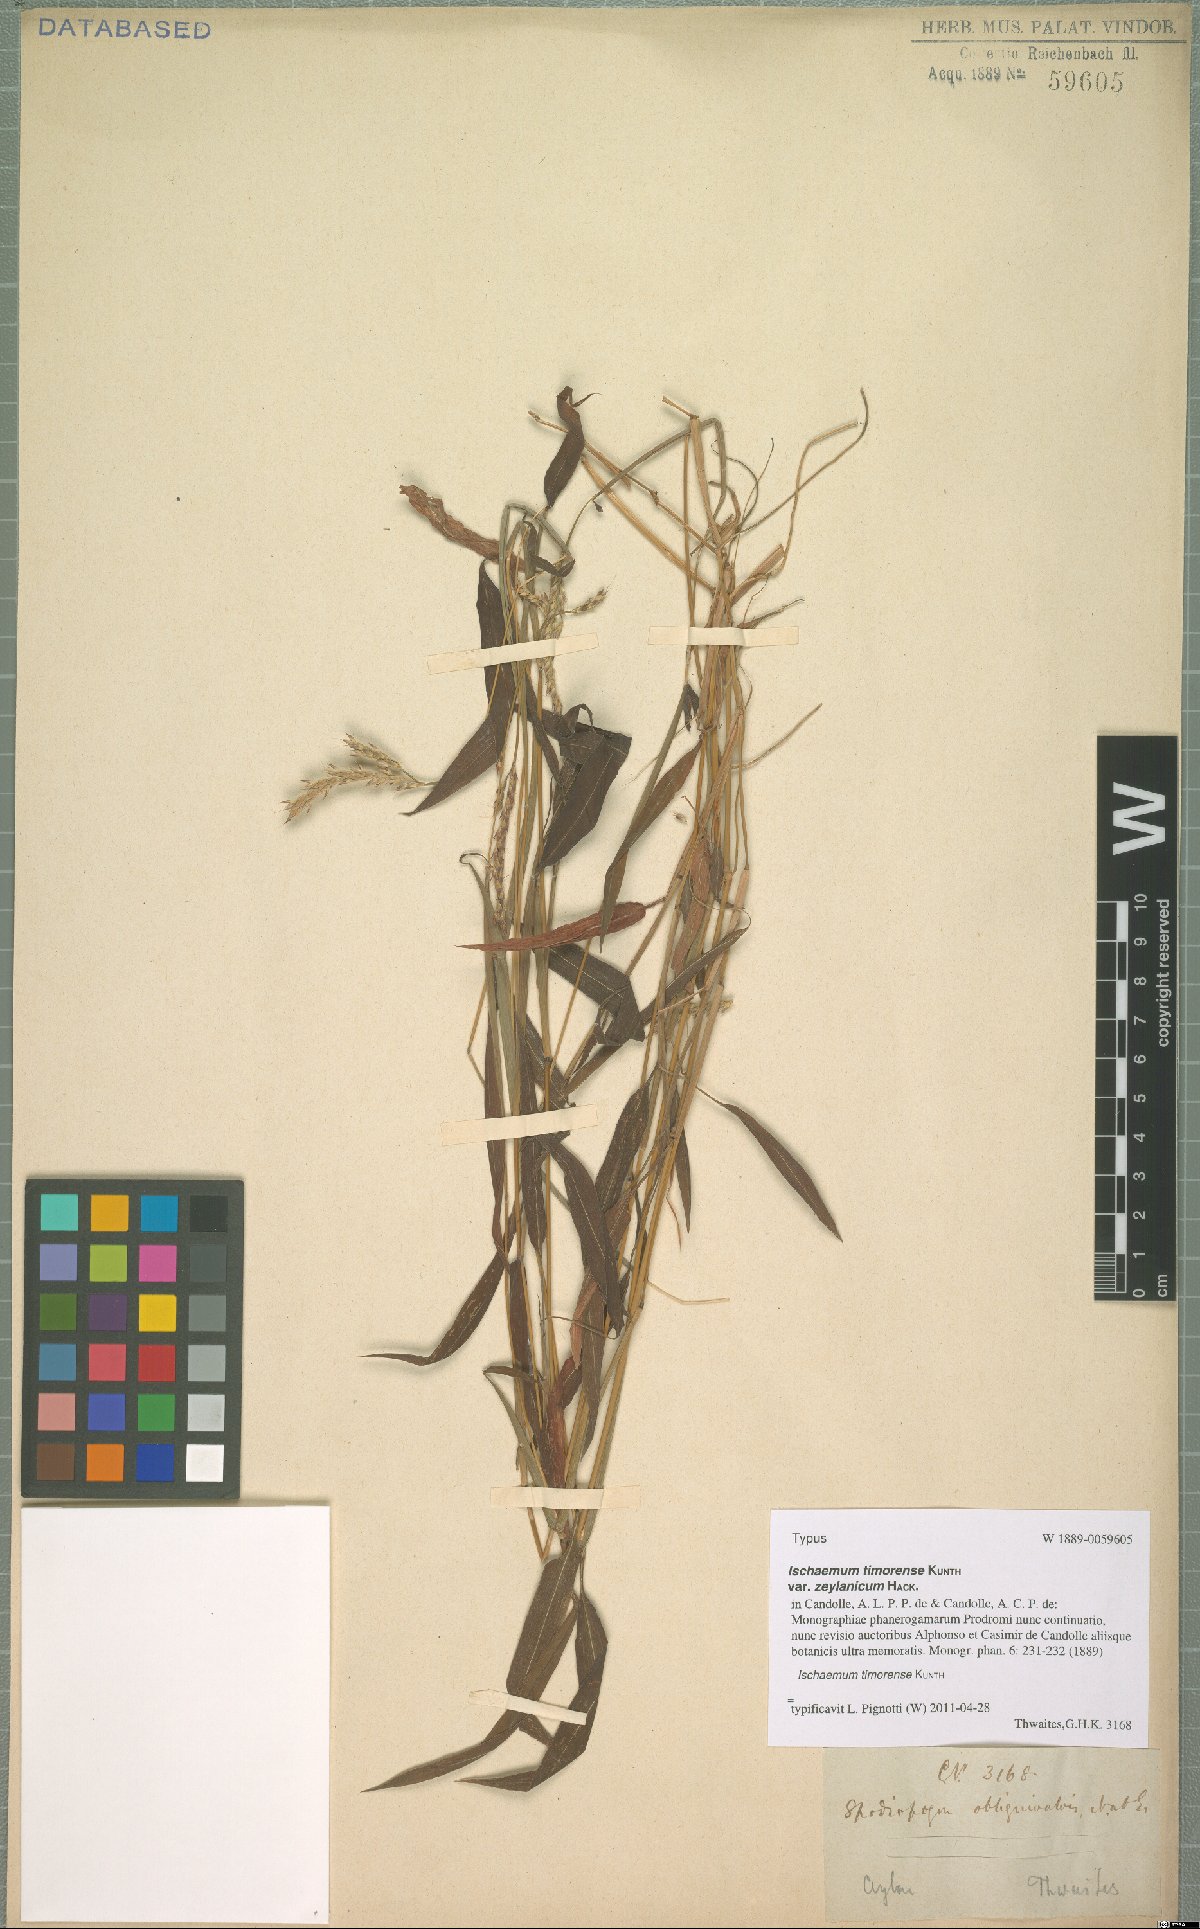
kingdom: Plantae
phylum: Tracheophyta
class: Liliopsida
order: Poales
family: Poaceae
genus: Ischaemum
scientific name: Ischaemum timorense
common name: Stalkleaf murainagrass
